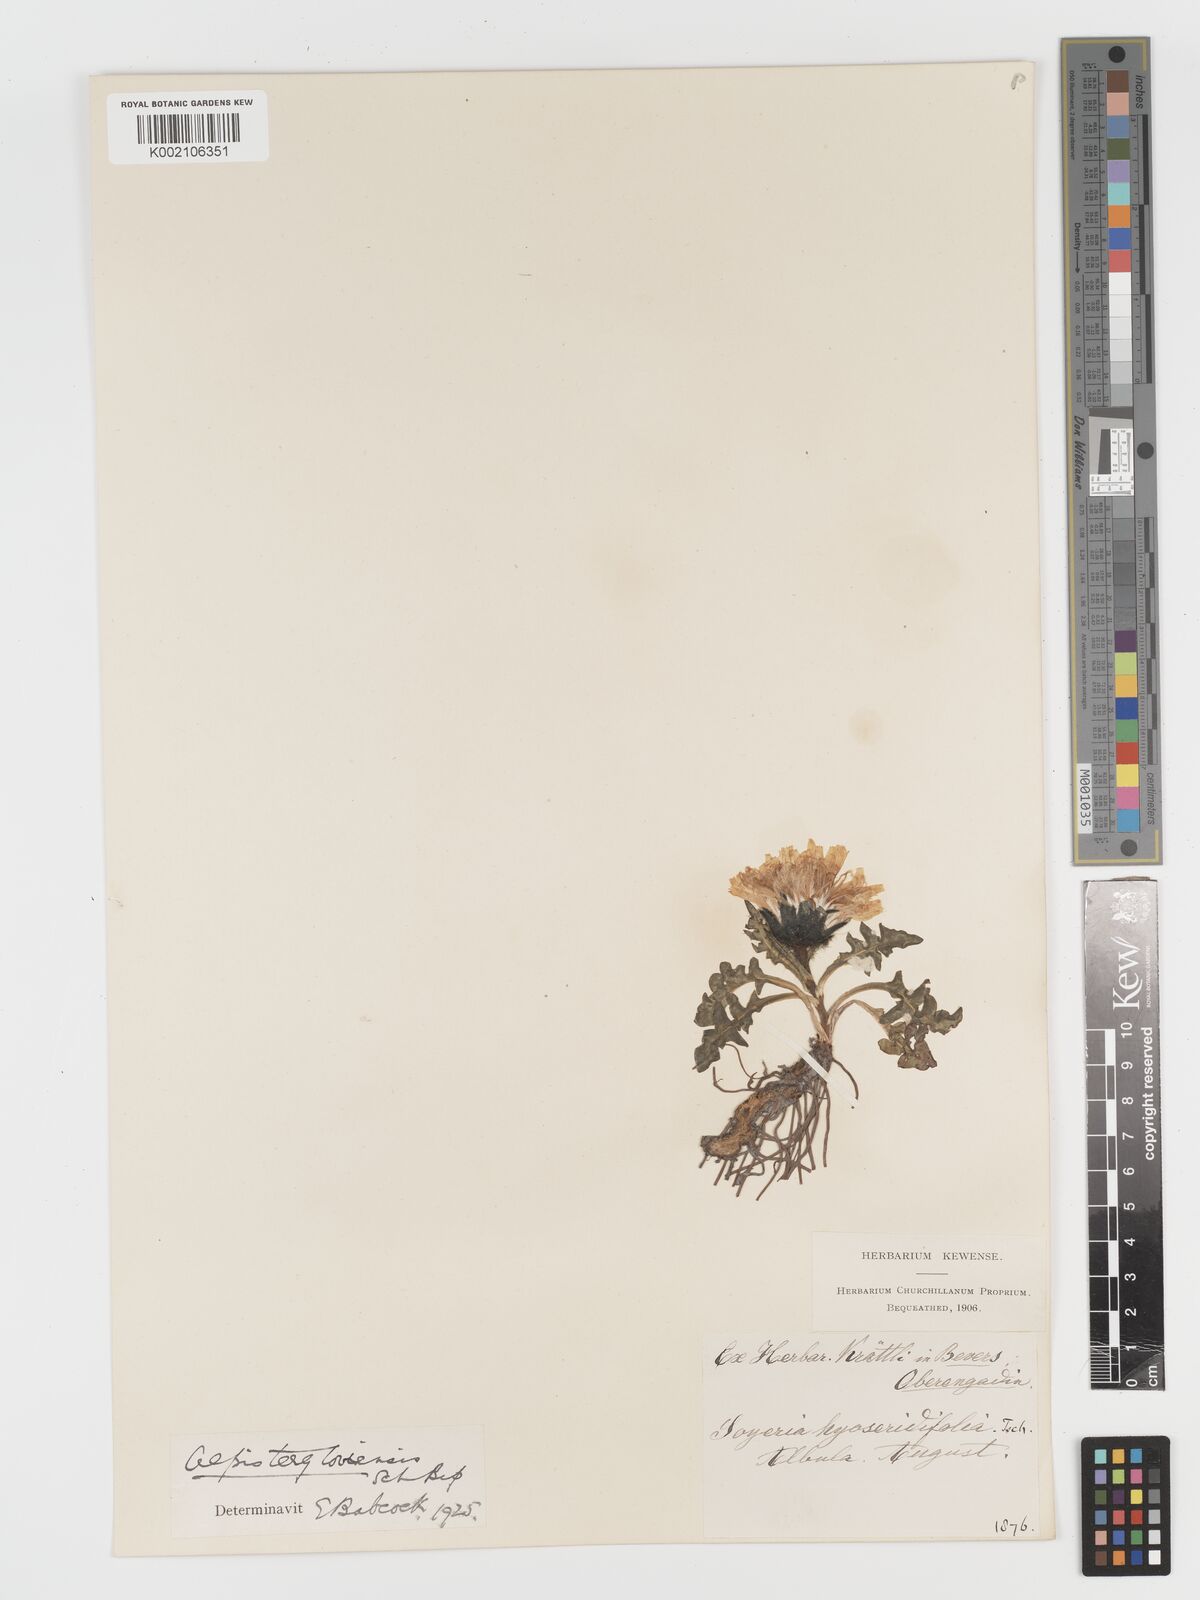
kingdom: Plantae
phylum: Tracheophyta
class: Magnoliopsida
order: Asterales
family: Asteraceae
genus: Crepis
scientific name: Crepis
